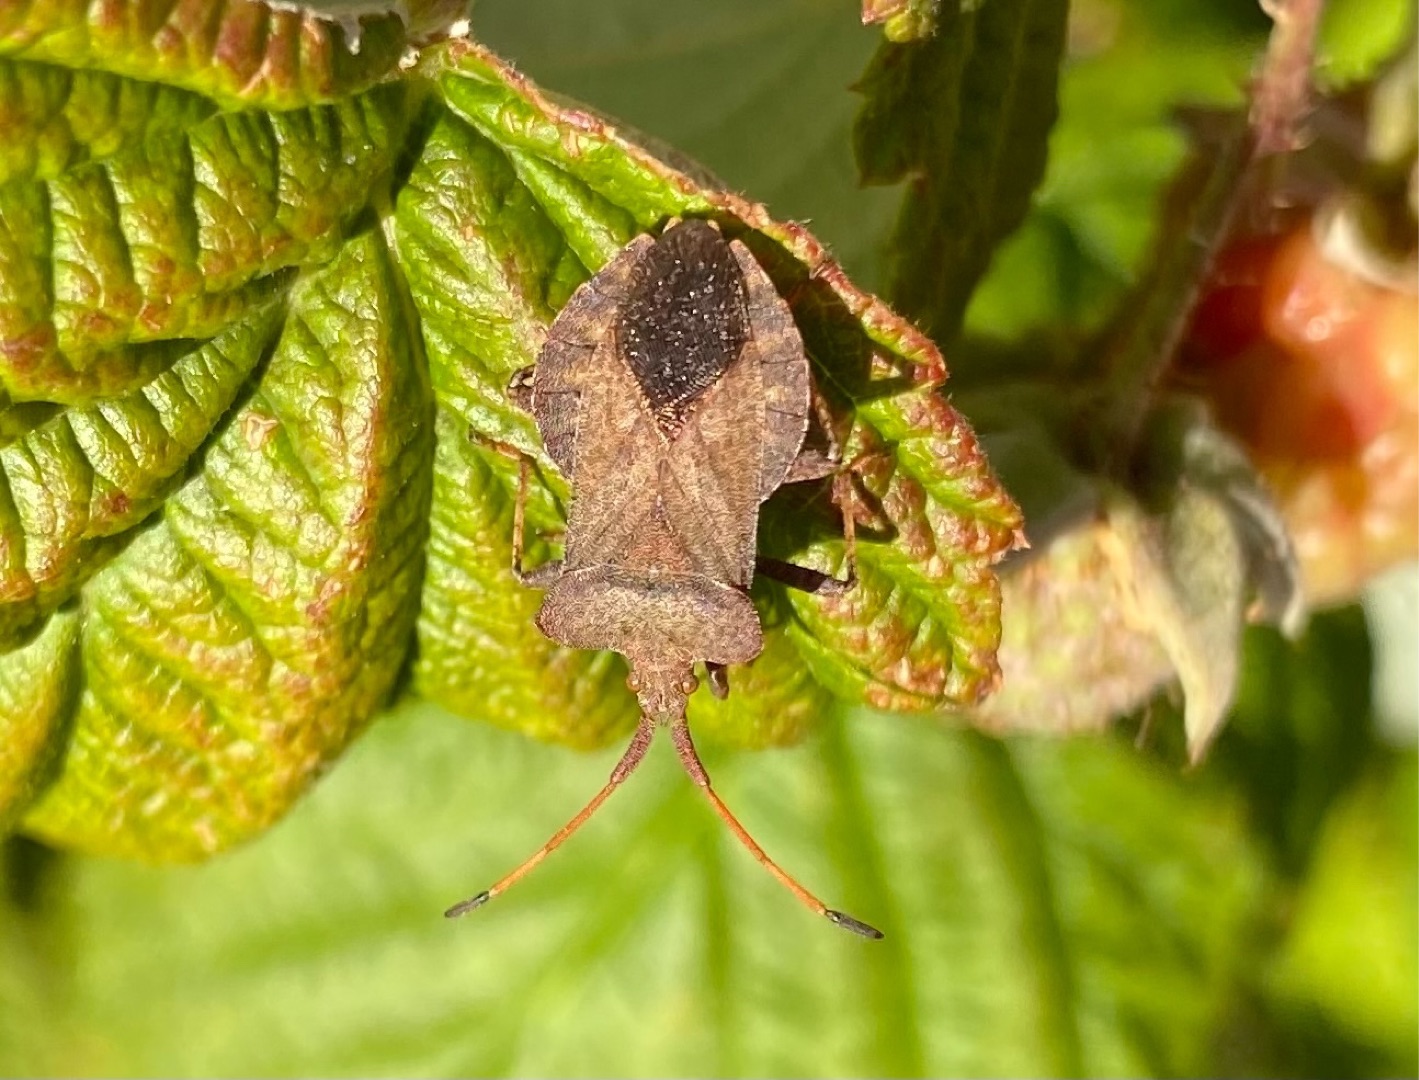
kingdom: Animalia
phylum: Arthropoda
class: Insecta
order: Hemiptera
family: Coreidae
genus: Coreus
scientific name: Coreus marginatus
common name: Skræppetæge
